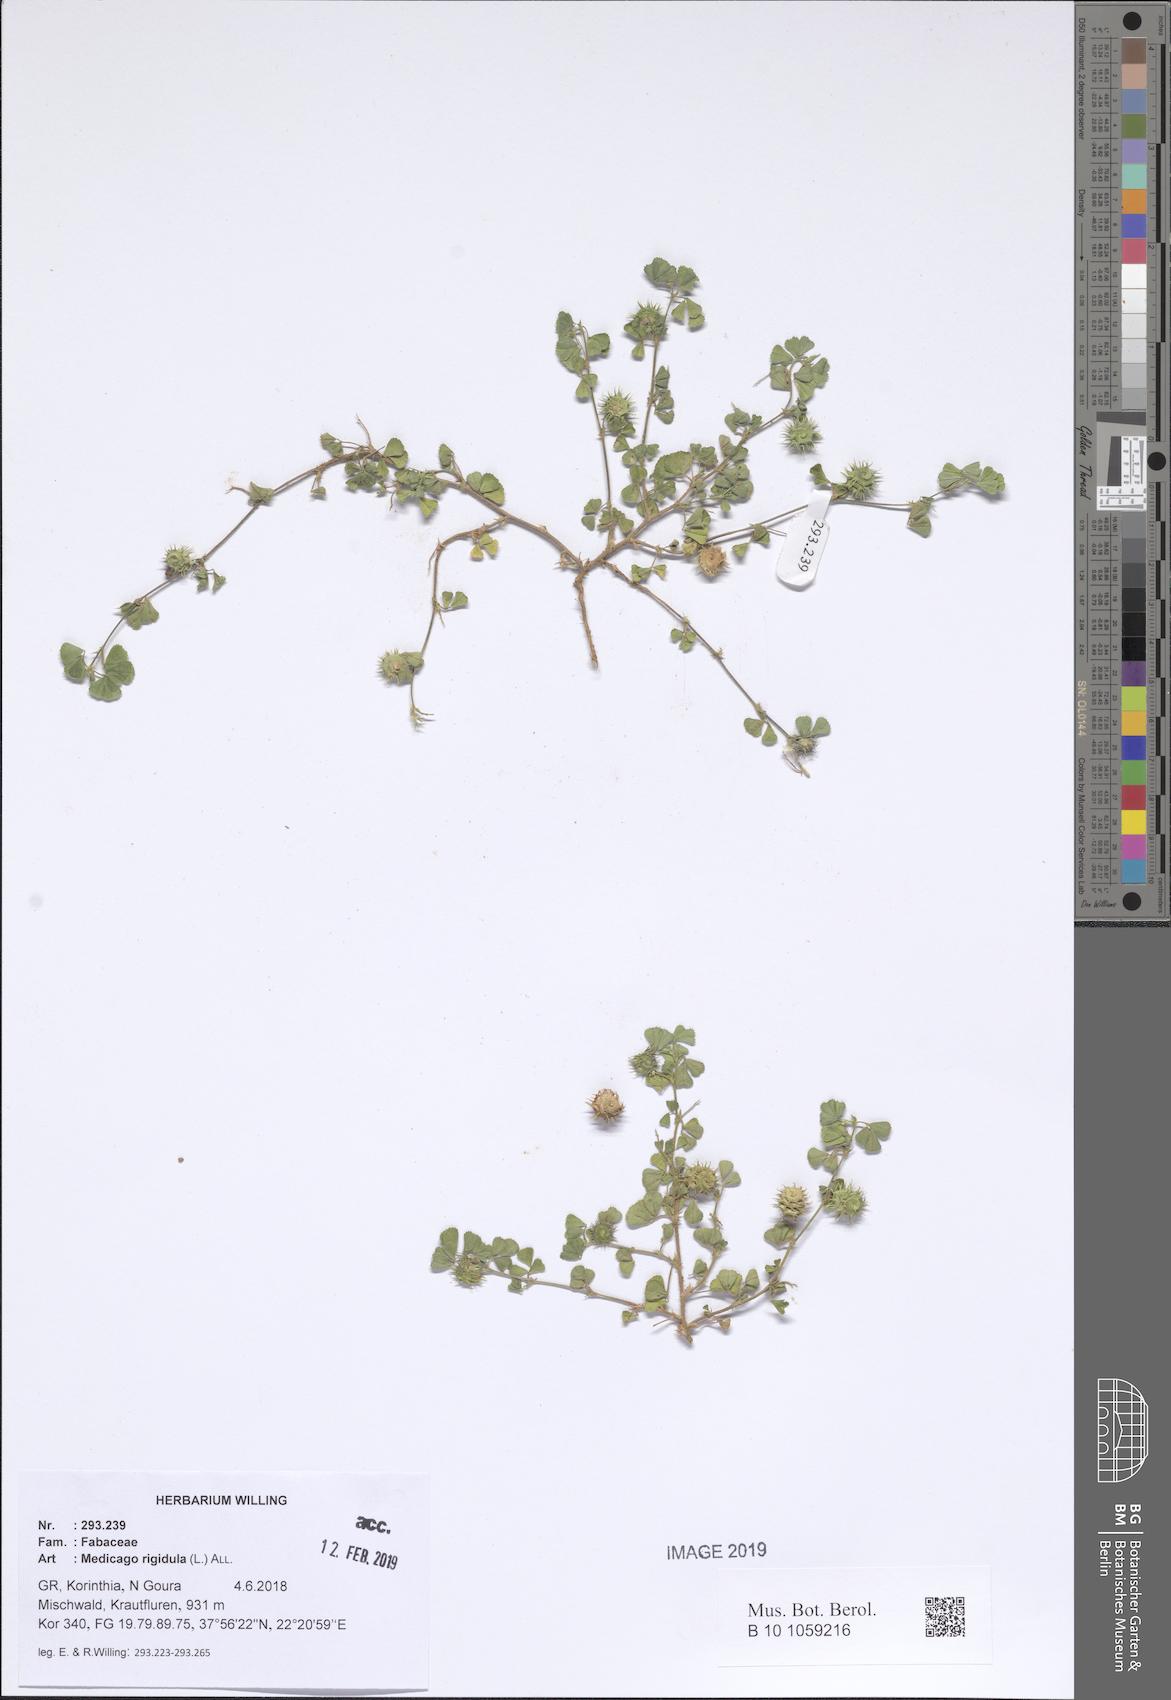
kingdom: Plantae
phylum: Tracheophyta
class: Magnoliopsida
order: Fabales
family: Fabaceae
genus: Medicago
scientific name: Medicago rigidula
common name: Tifton medic
